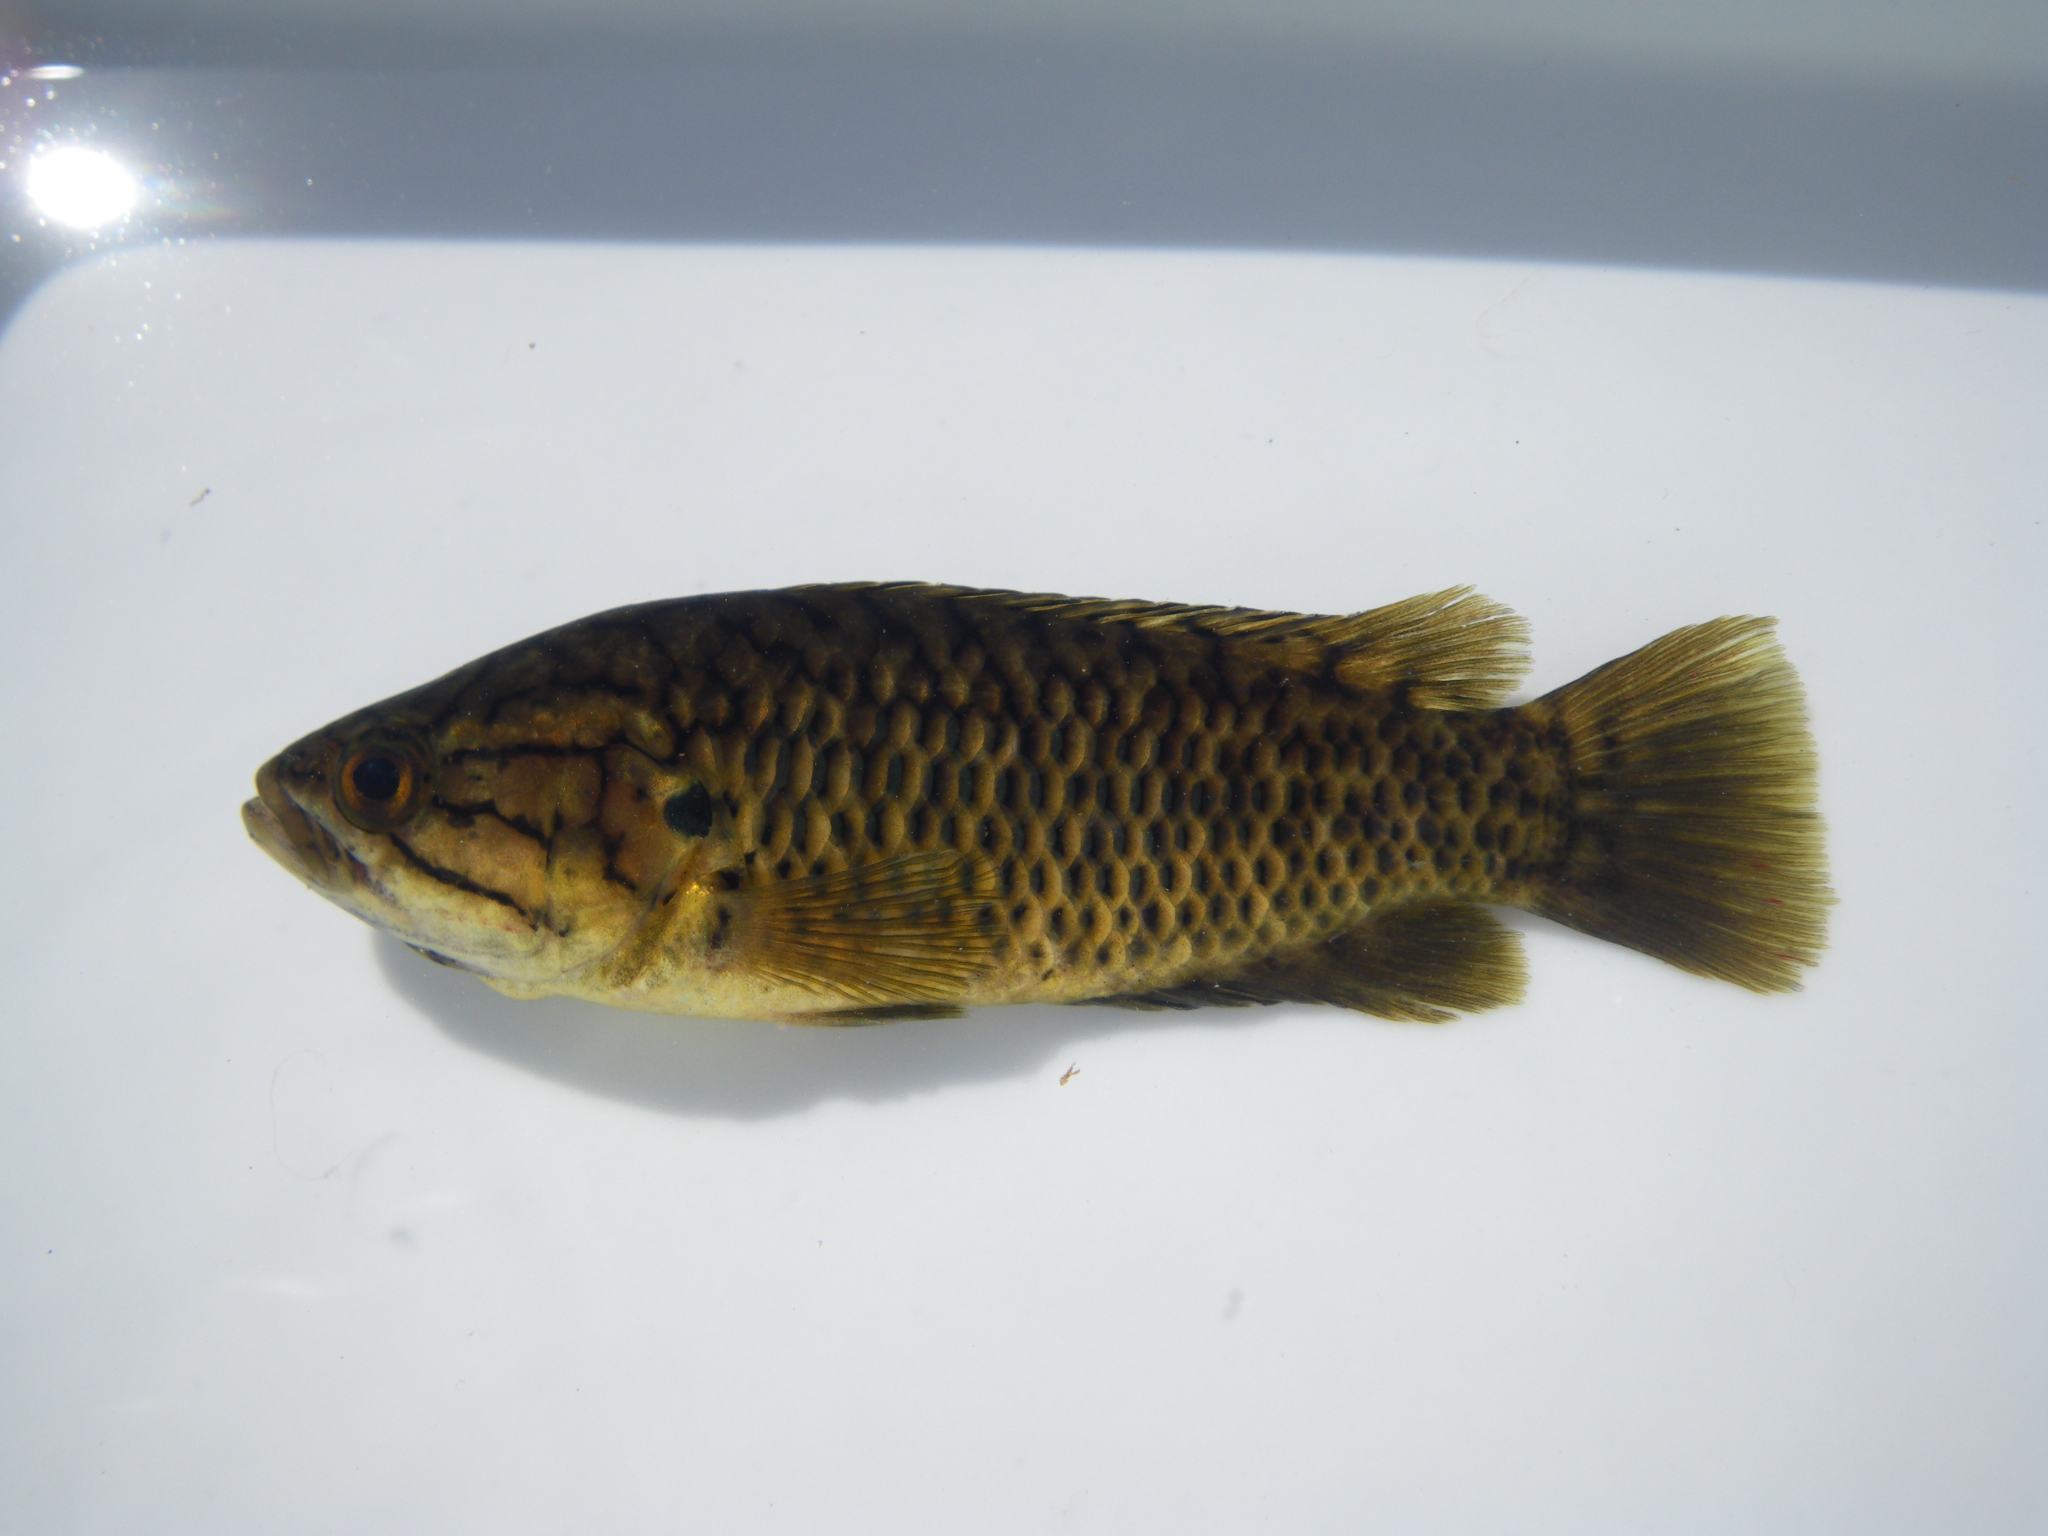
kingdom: Animalia
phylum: Chordata
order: Perciformes
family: Anabantidae
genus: Sandelia
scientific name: Sandelia capensis
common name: Cape kurper
